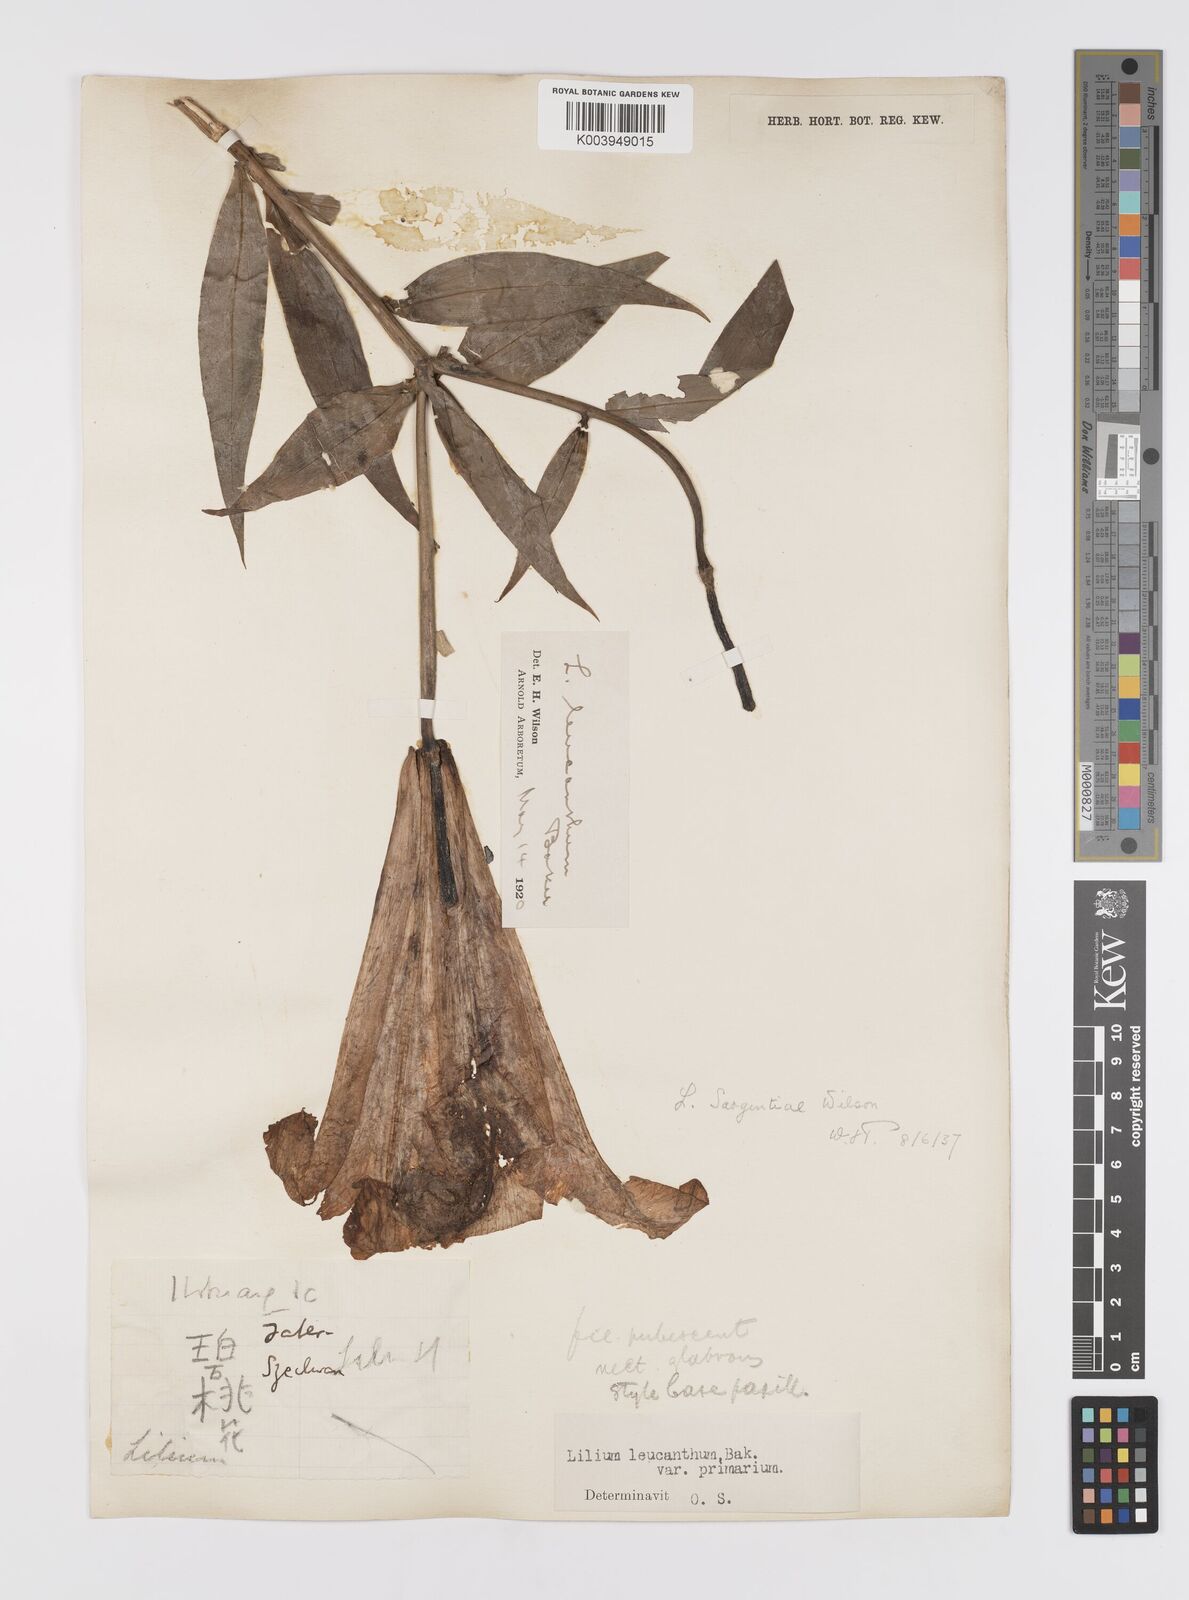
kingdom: Plantae
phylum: Tracheophyta
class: Liliopsida
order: Liliales
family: Liliaceae
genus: Lilium
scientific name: Lilium sargentiae
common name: Sargent lily
